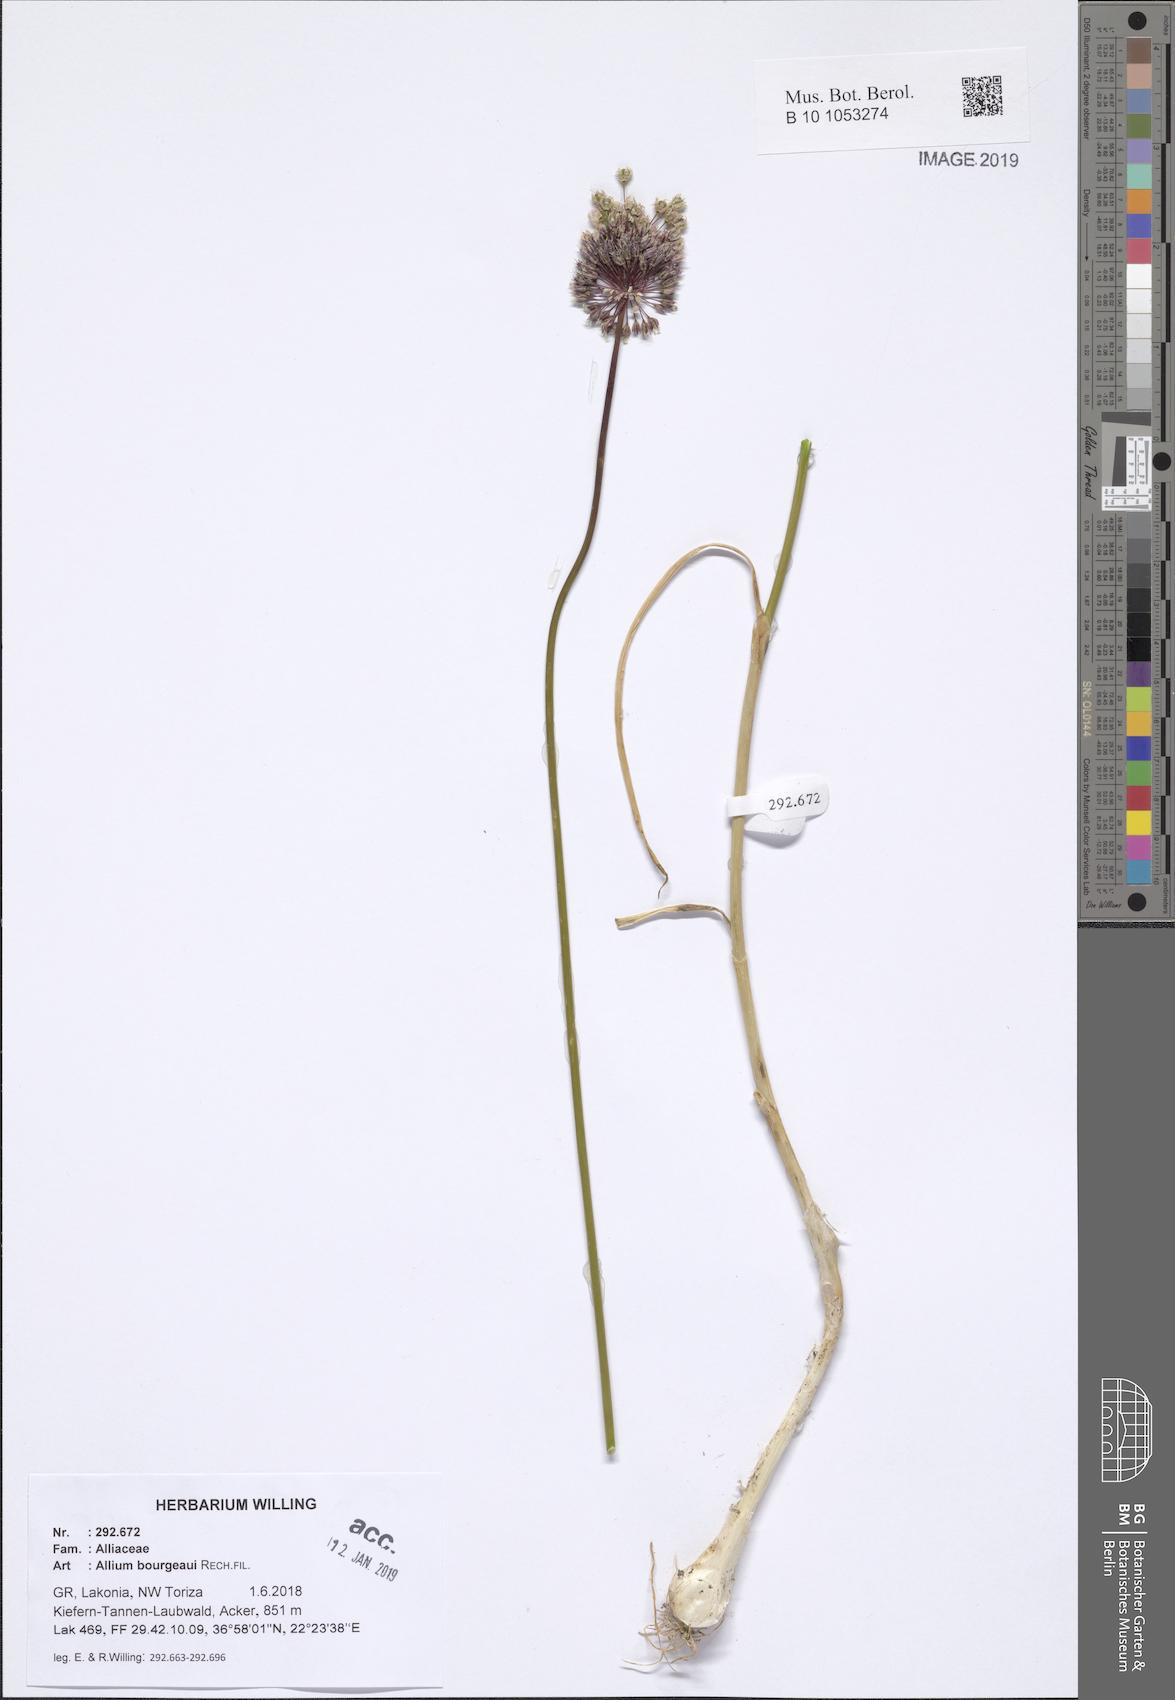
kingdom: Plantae
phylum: Tracheophyta
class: Liliopsida
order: Asparagales
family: Amaryllidaceae
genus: Allium
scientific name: Allium bourgeaui
